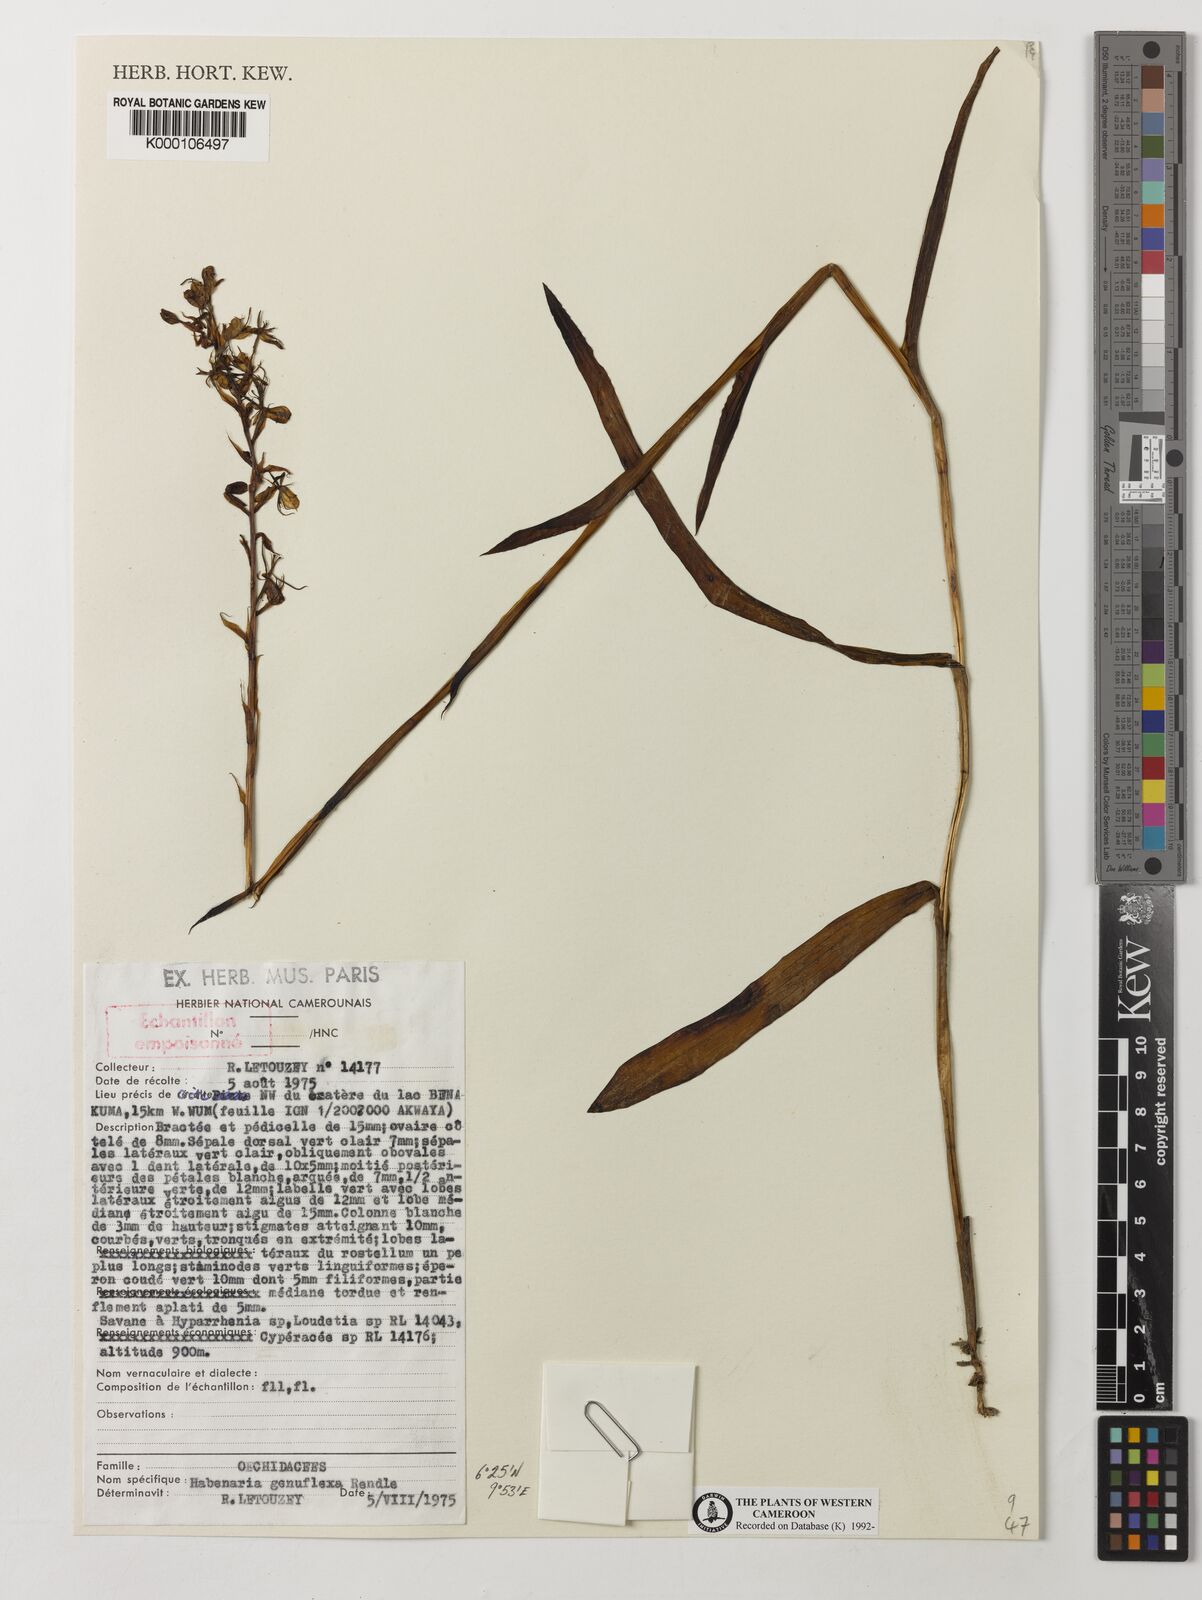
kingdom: Plantae
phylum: Tracheophyta
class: Liliopsida
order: Asparagales
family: Orchidaceae
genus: Habenaria
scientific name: Habenaria genuflexa
